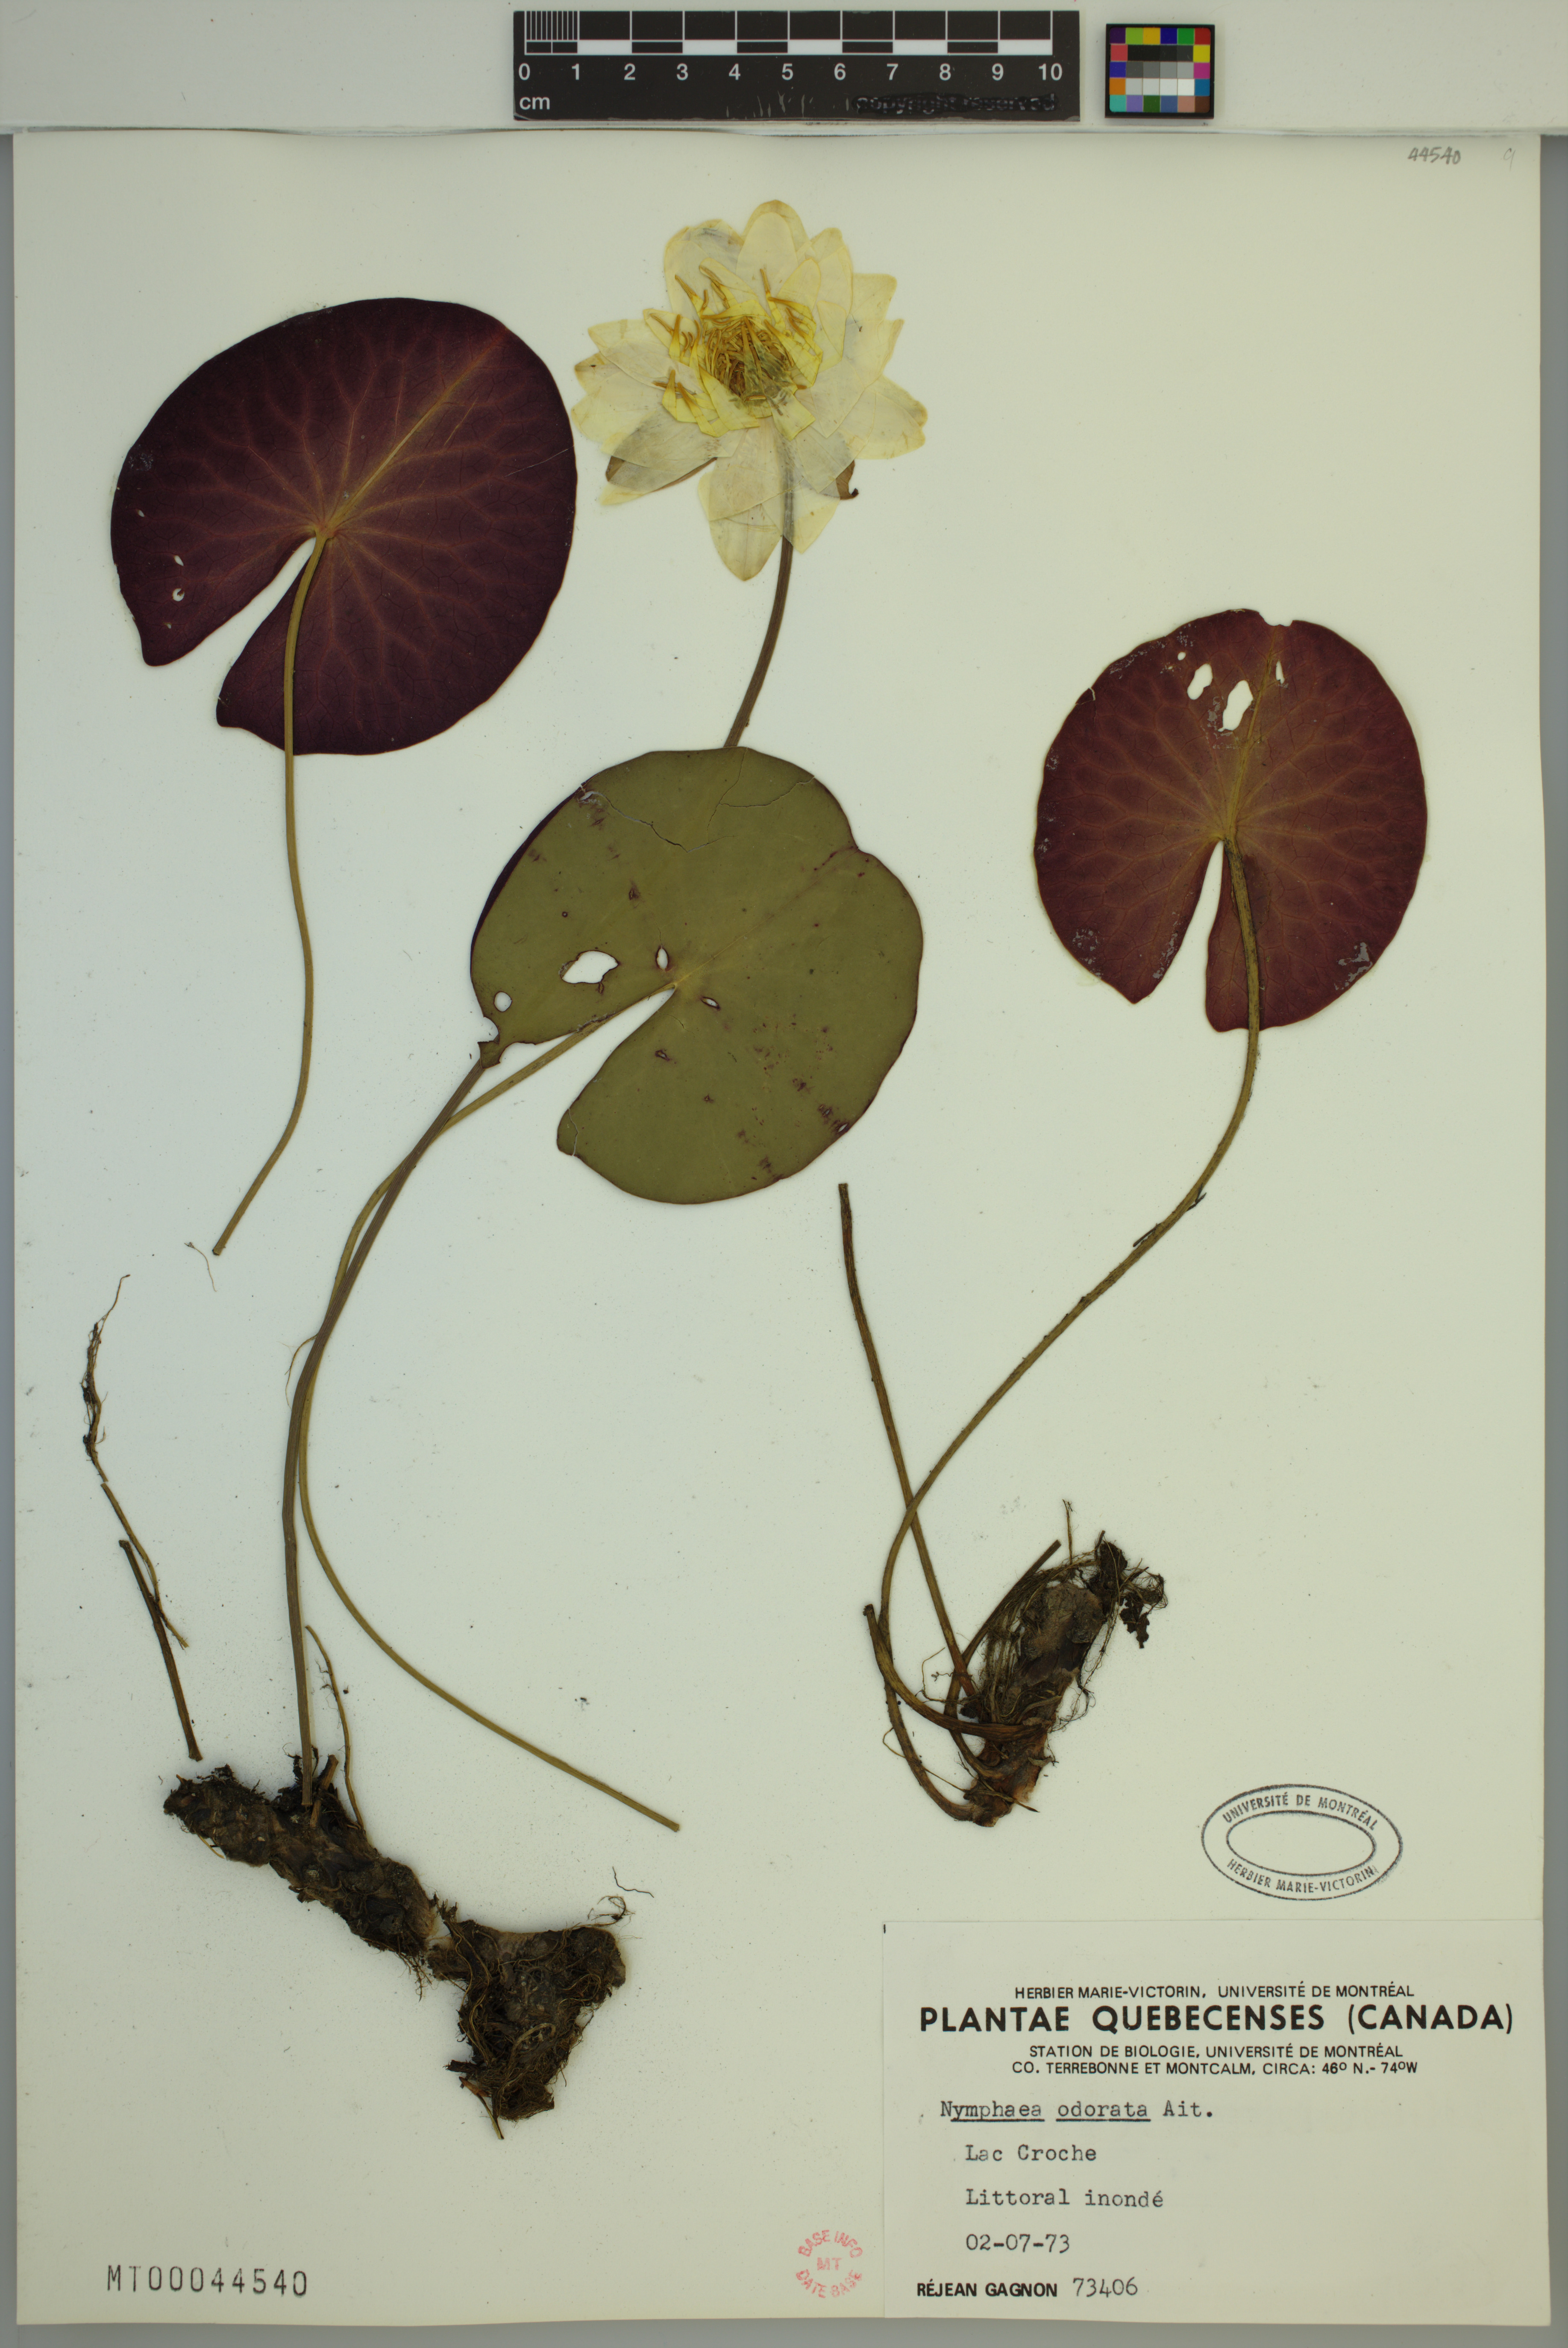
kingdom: Plantae
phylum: Tracheophyta
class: Magnoliopsida
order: Nymphaeales
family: Nymphaeaceae
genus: Nymphaea
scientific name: Nymphaea odorata
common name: Fragrant water-lily
